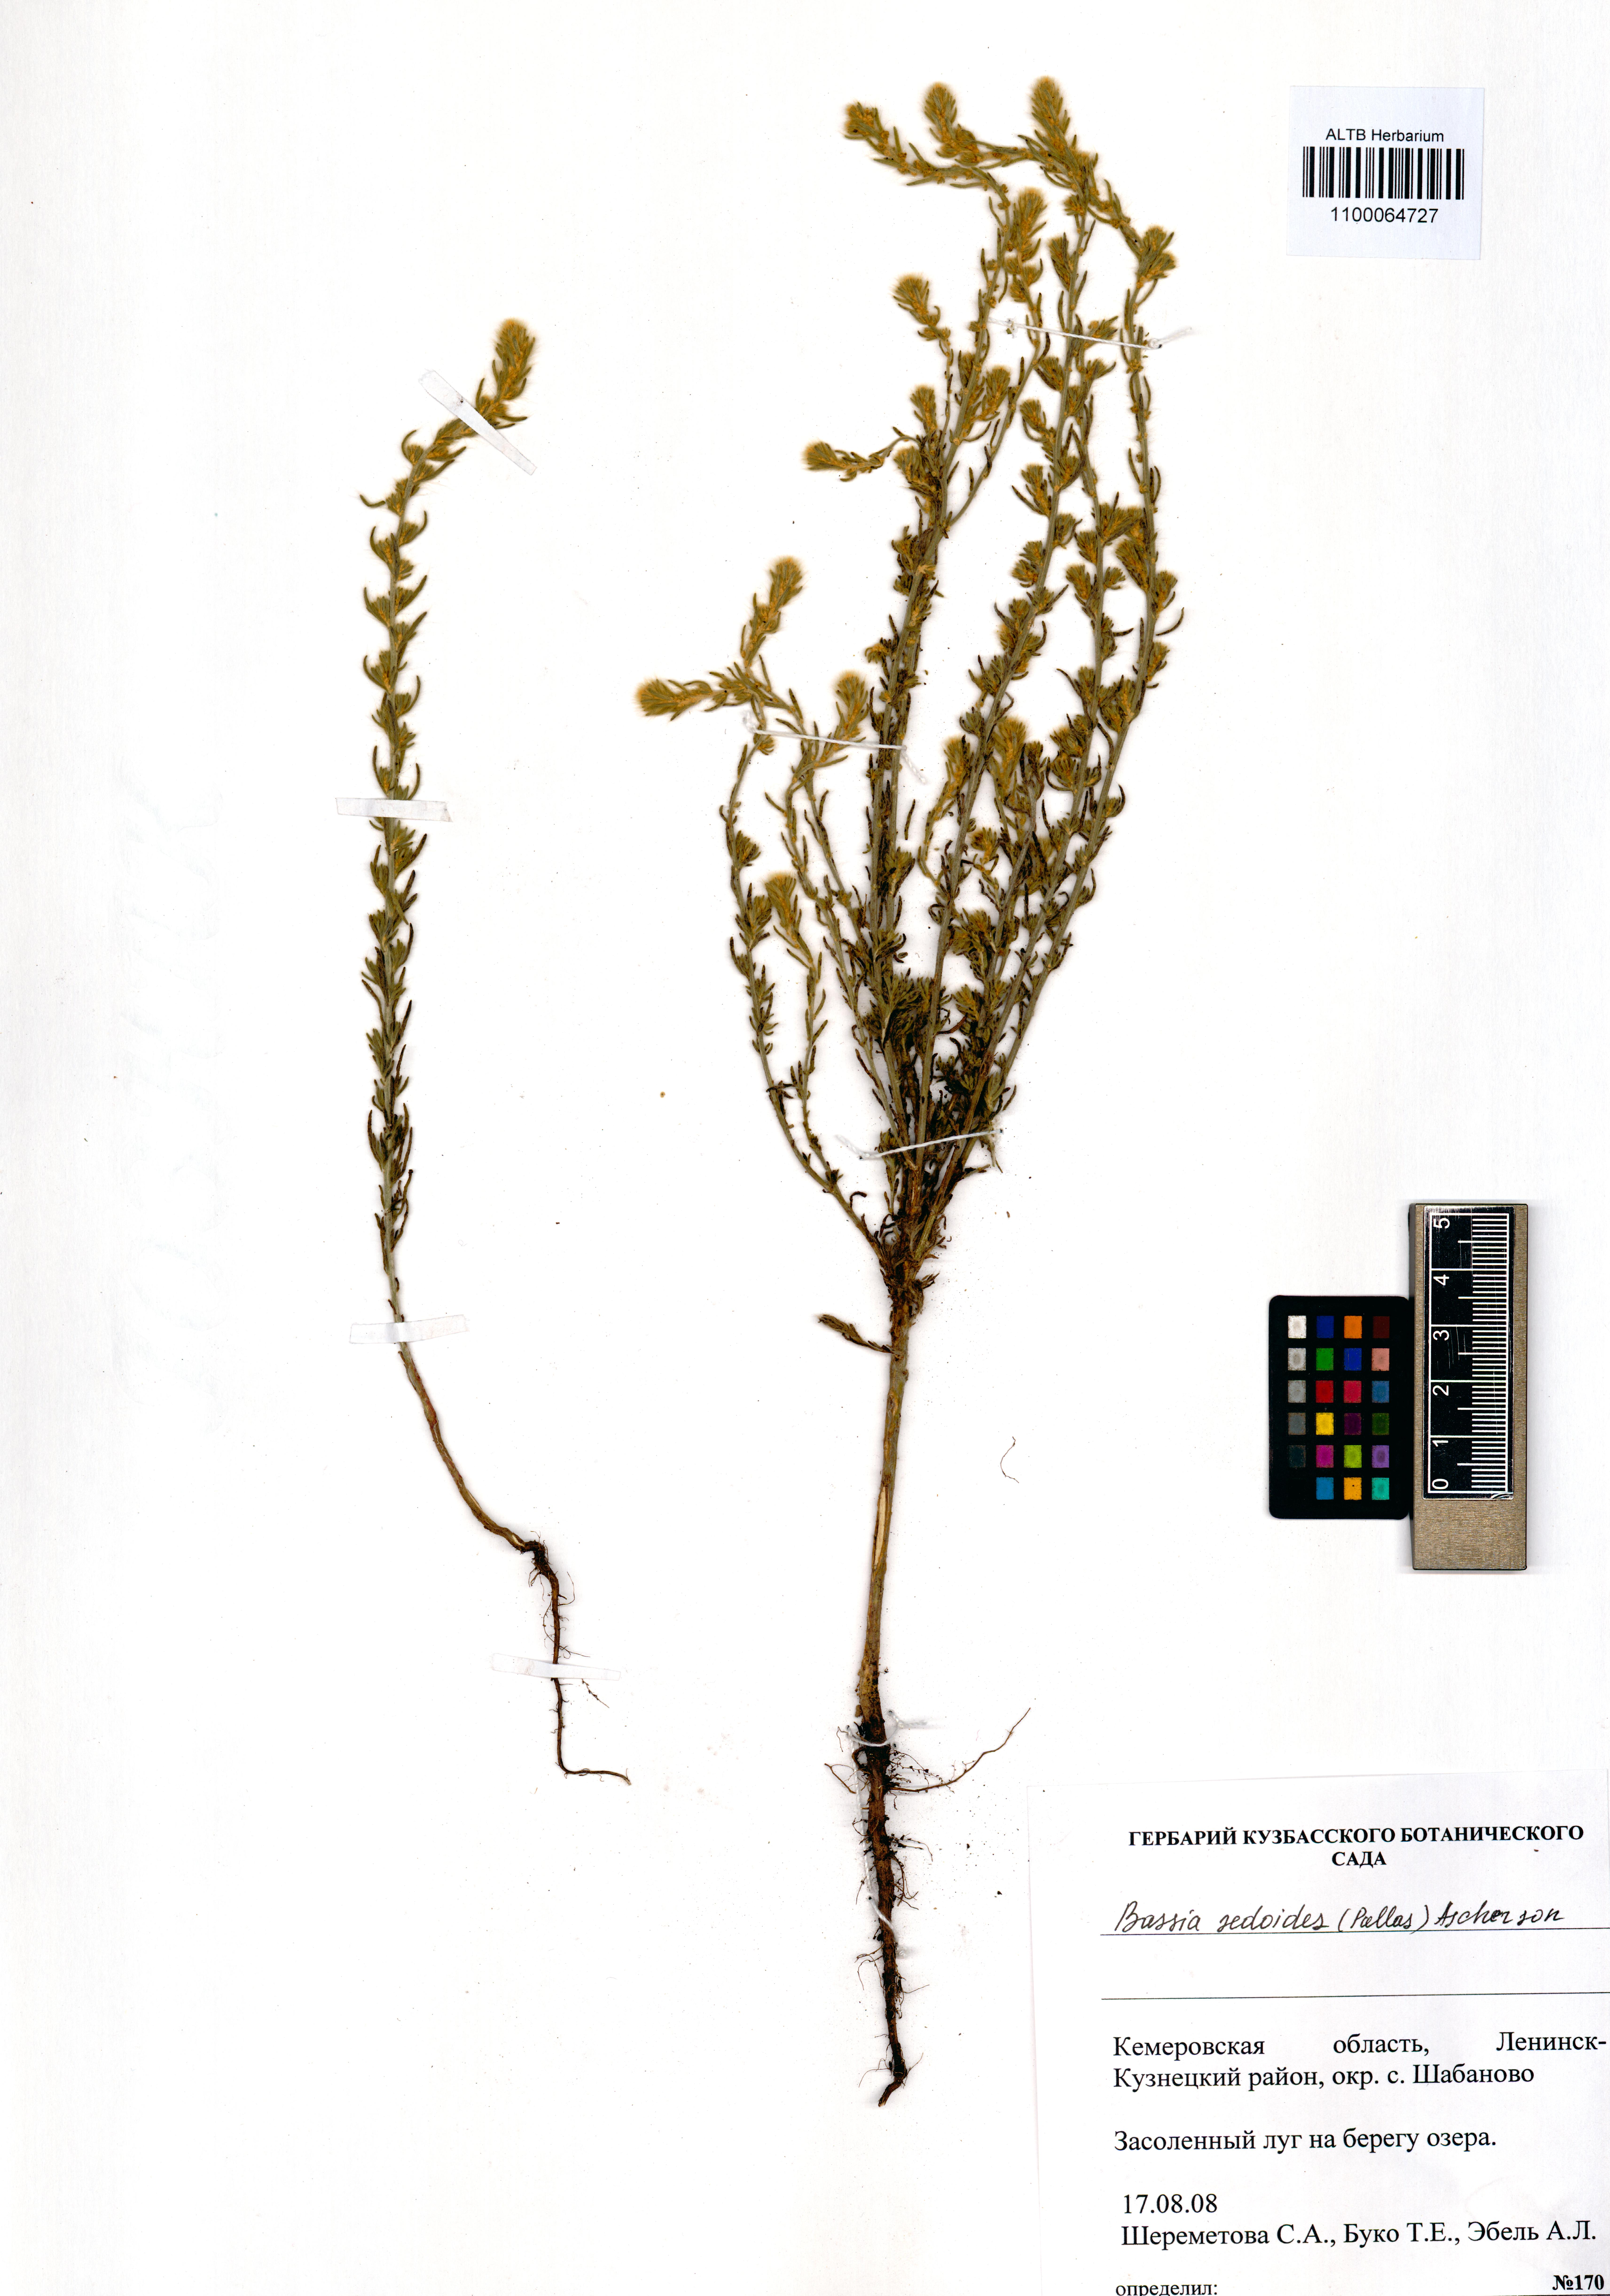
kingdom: Plantae
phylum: Tracheophyta
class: Magnoliopsida
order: Caryophyllales
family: Amaranthaceae
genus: Sedobassia
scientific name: Sedobassia sedoides
